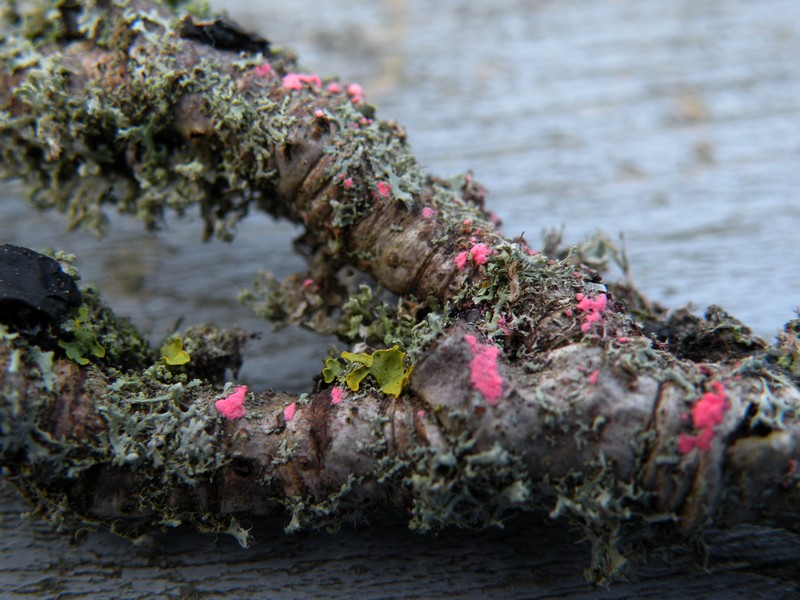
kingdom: Fungi
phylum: Ascomycota
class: Sordariomycetes
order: Hypocreales
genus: Illosporiopsis
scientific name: Illosporiopsis christiansenii
